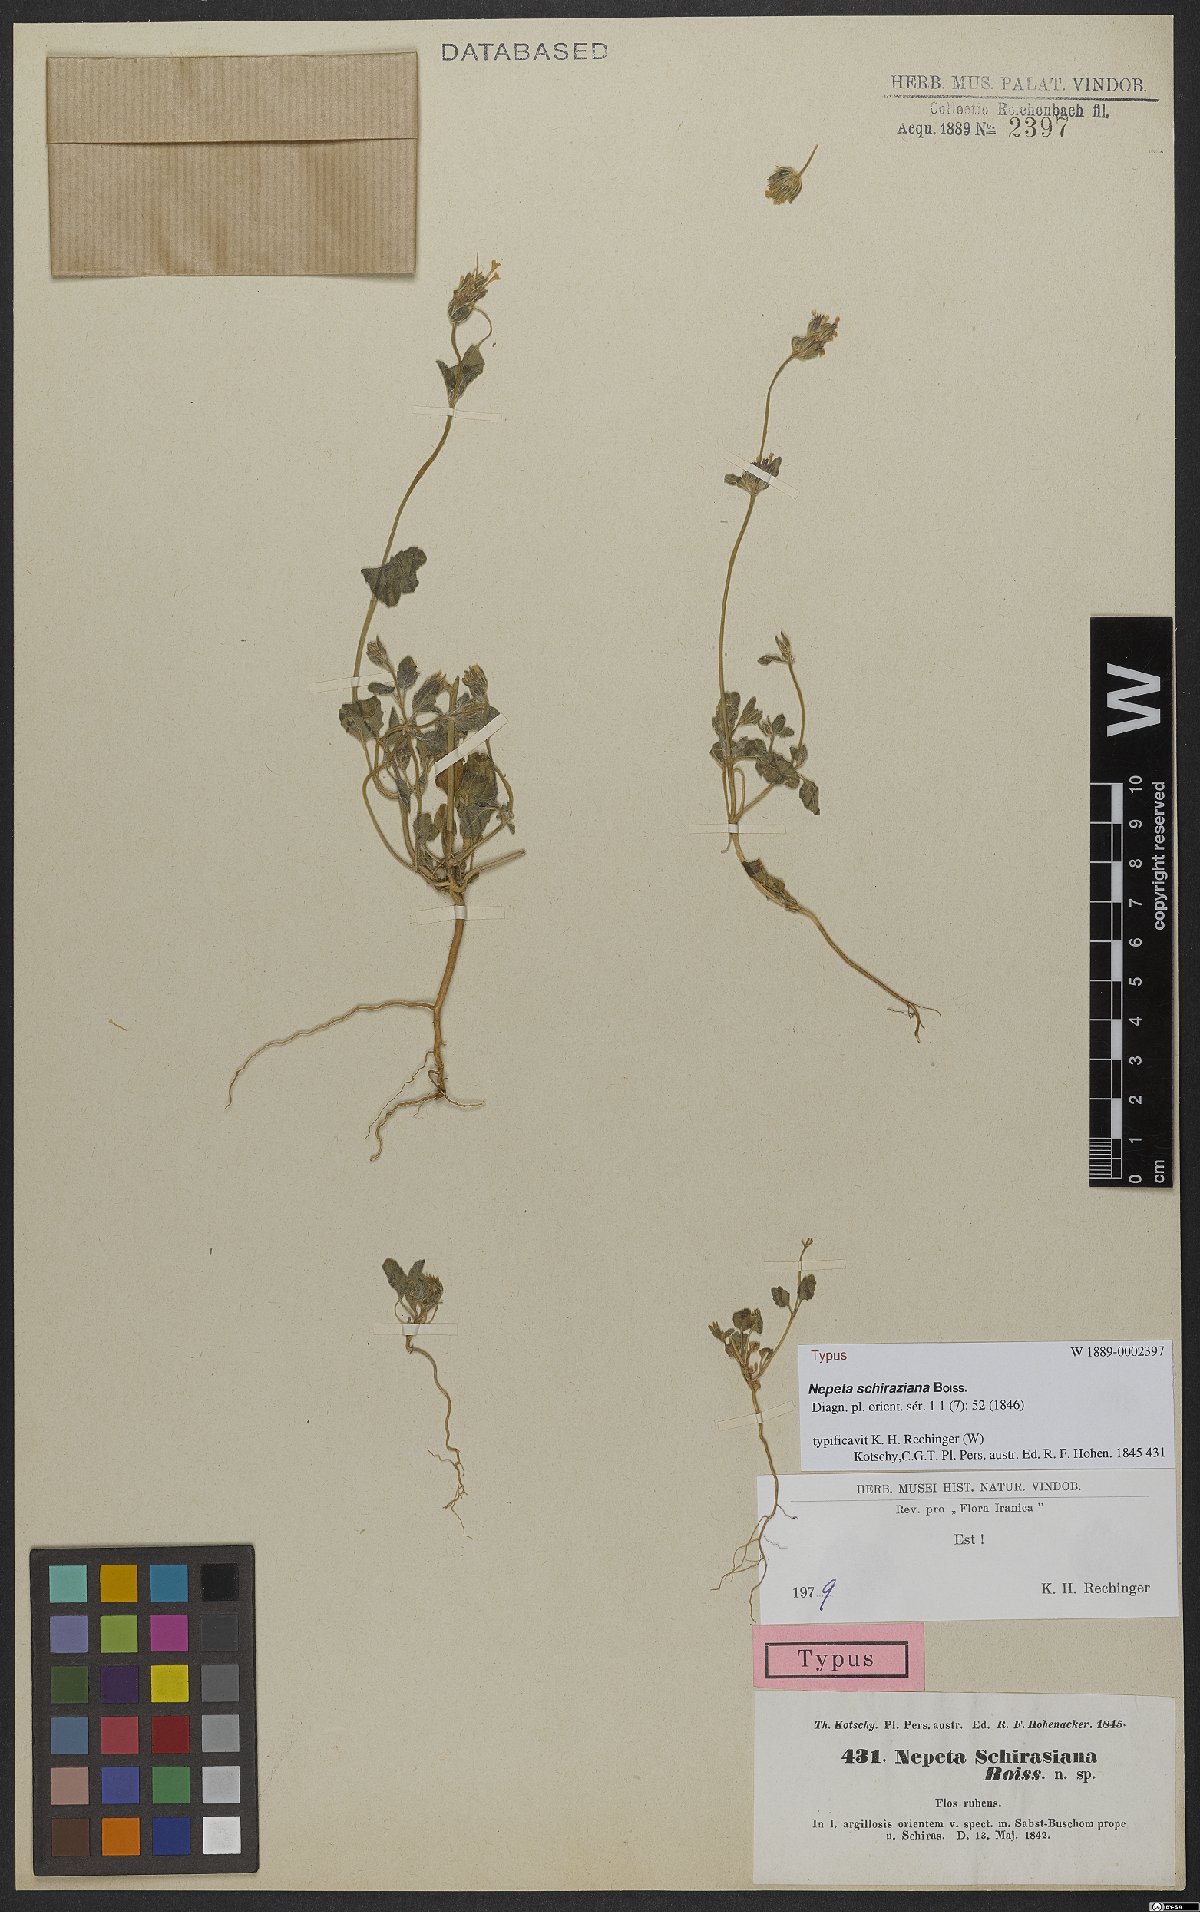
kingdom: Plantae
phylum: Tracheophyta
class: Magnoliopsida
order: Lamiales
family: Lamiaceae
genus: Nepeta
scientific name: Nepeta schiraziana
